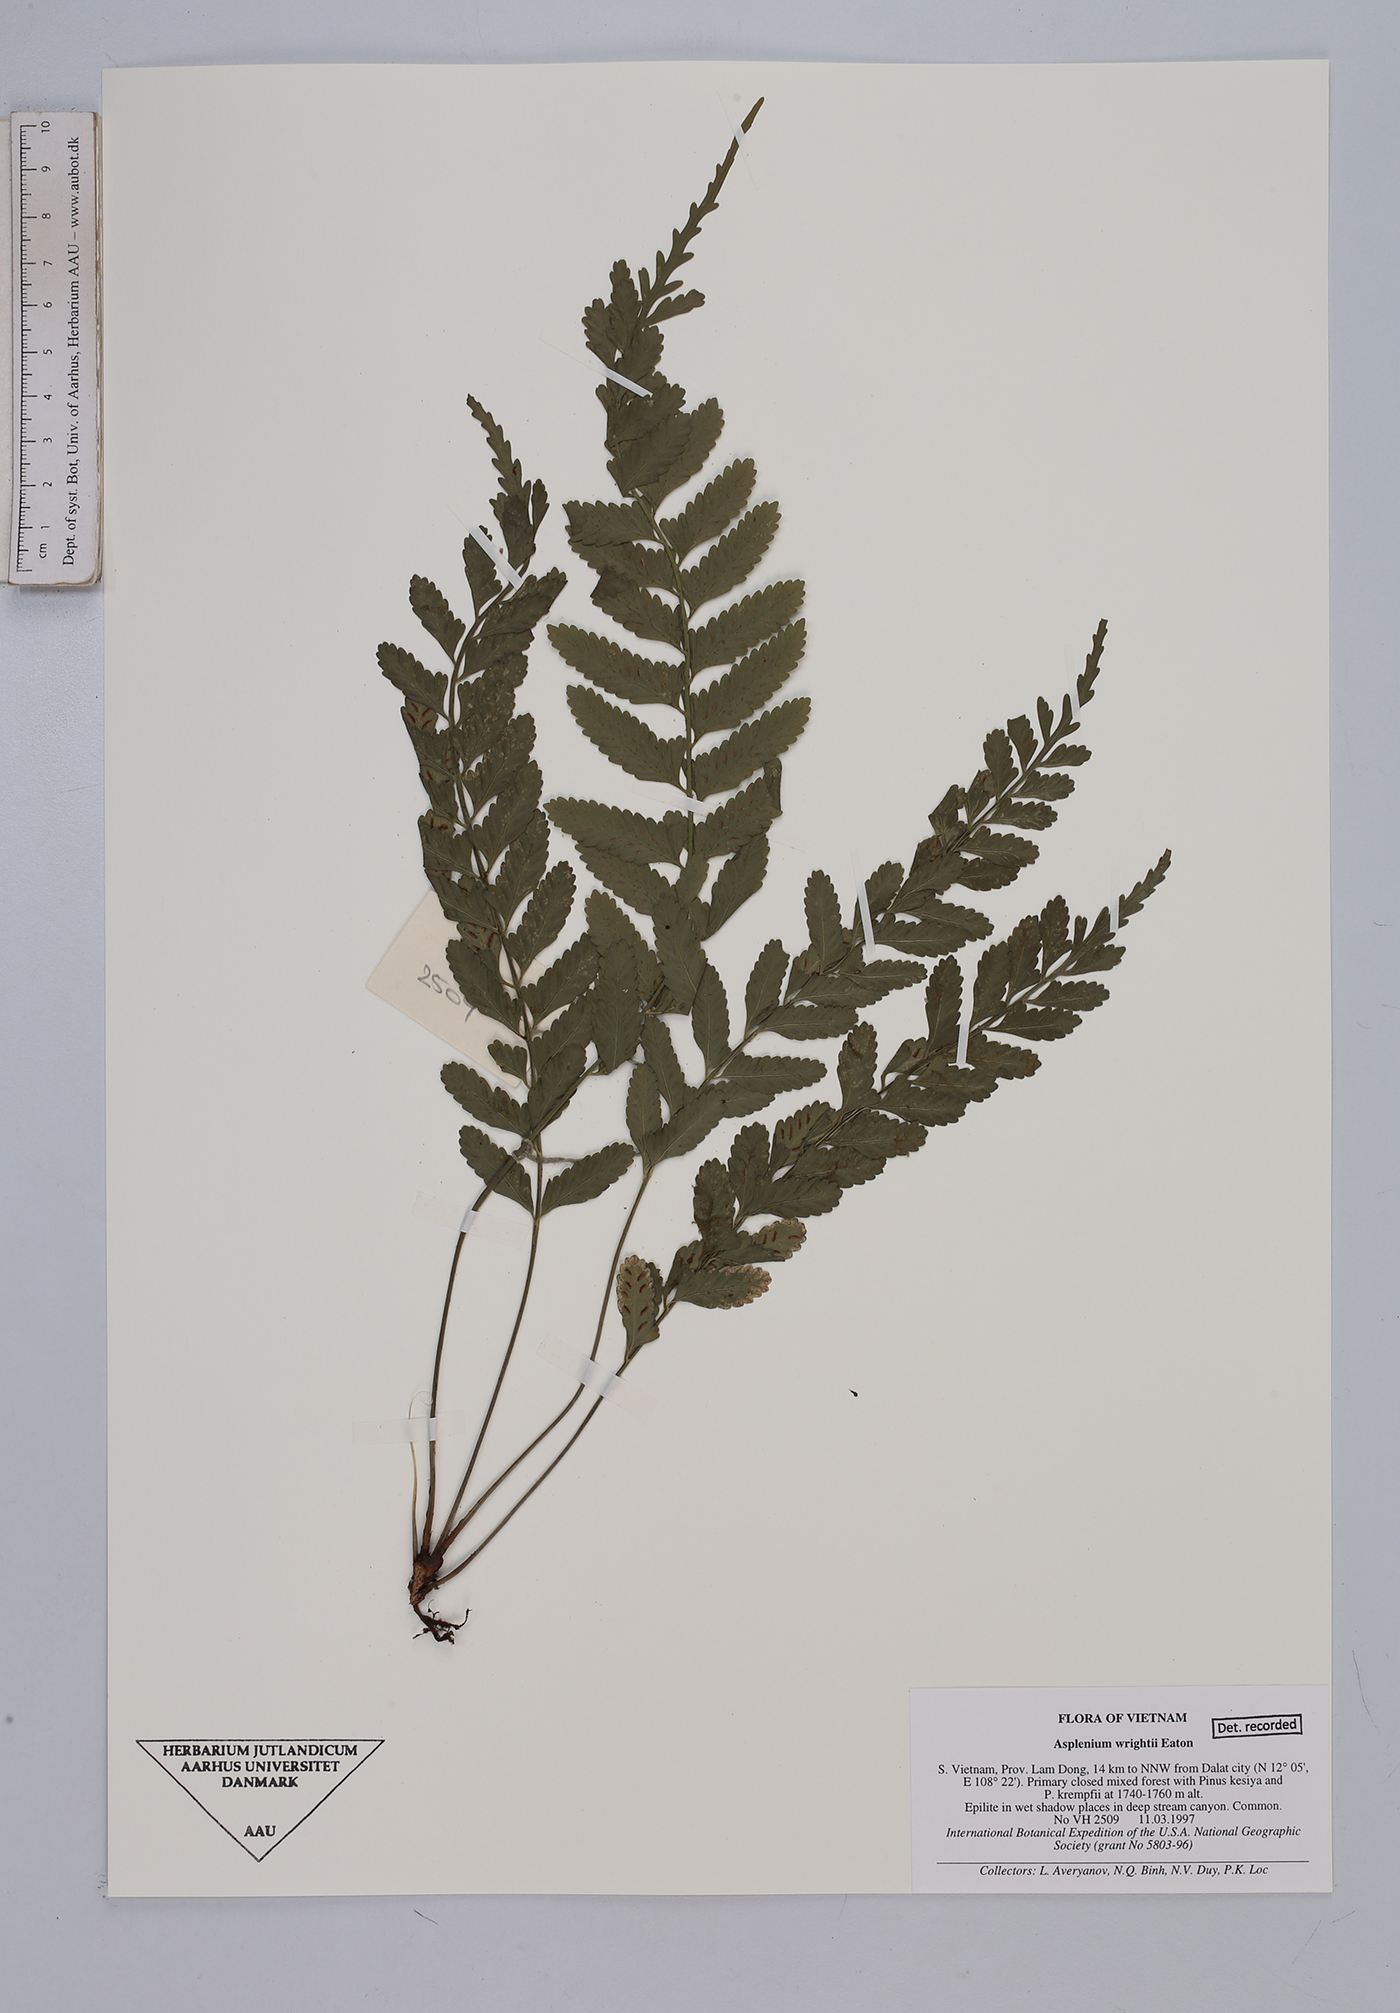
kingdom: Plantae
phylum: Tracheophyta
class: Polypodiopsida
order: Polypodiales
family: Aspleniaceae
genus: Asplenium
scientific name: Asplenium wrightii
